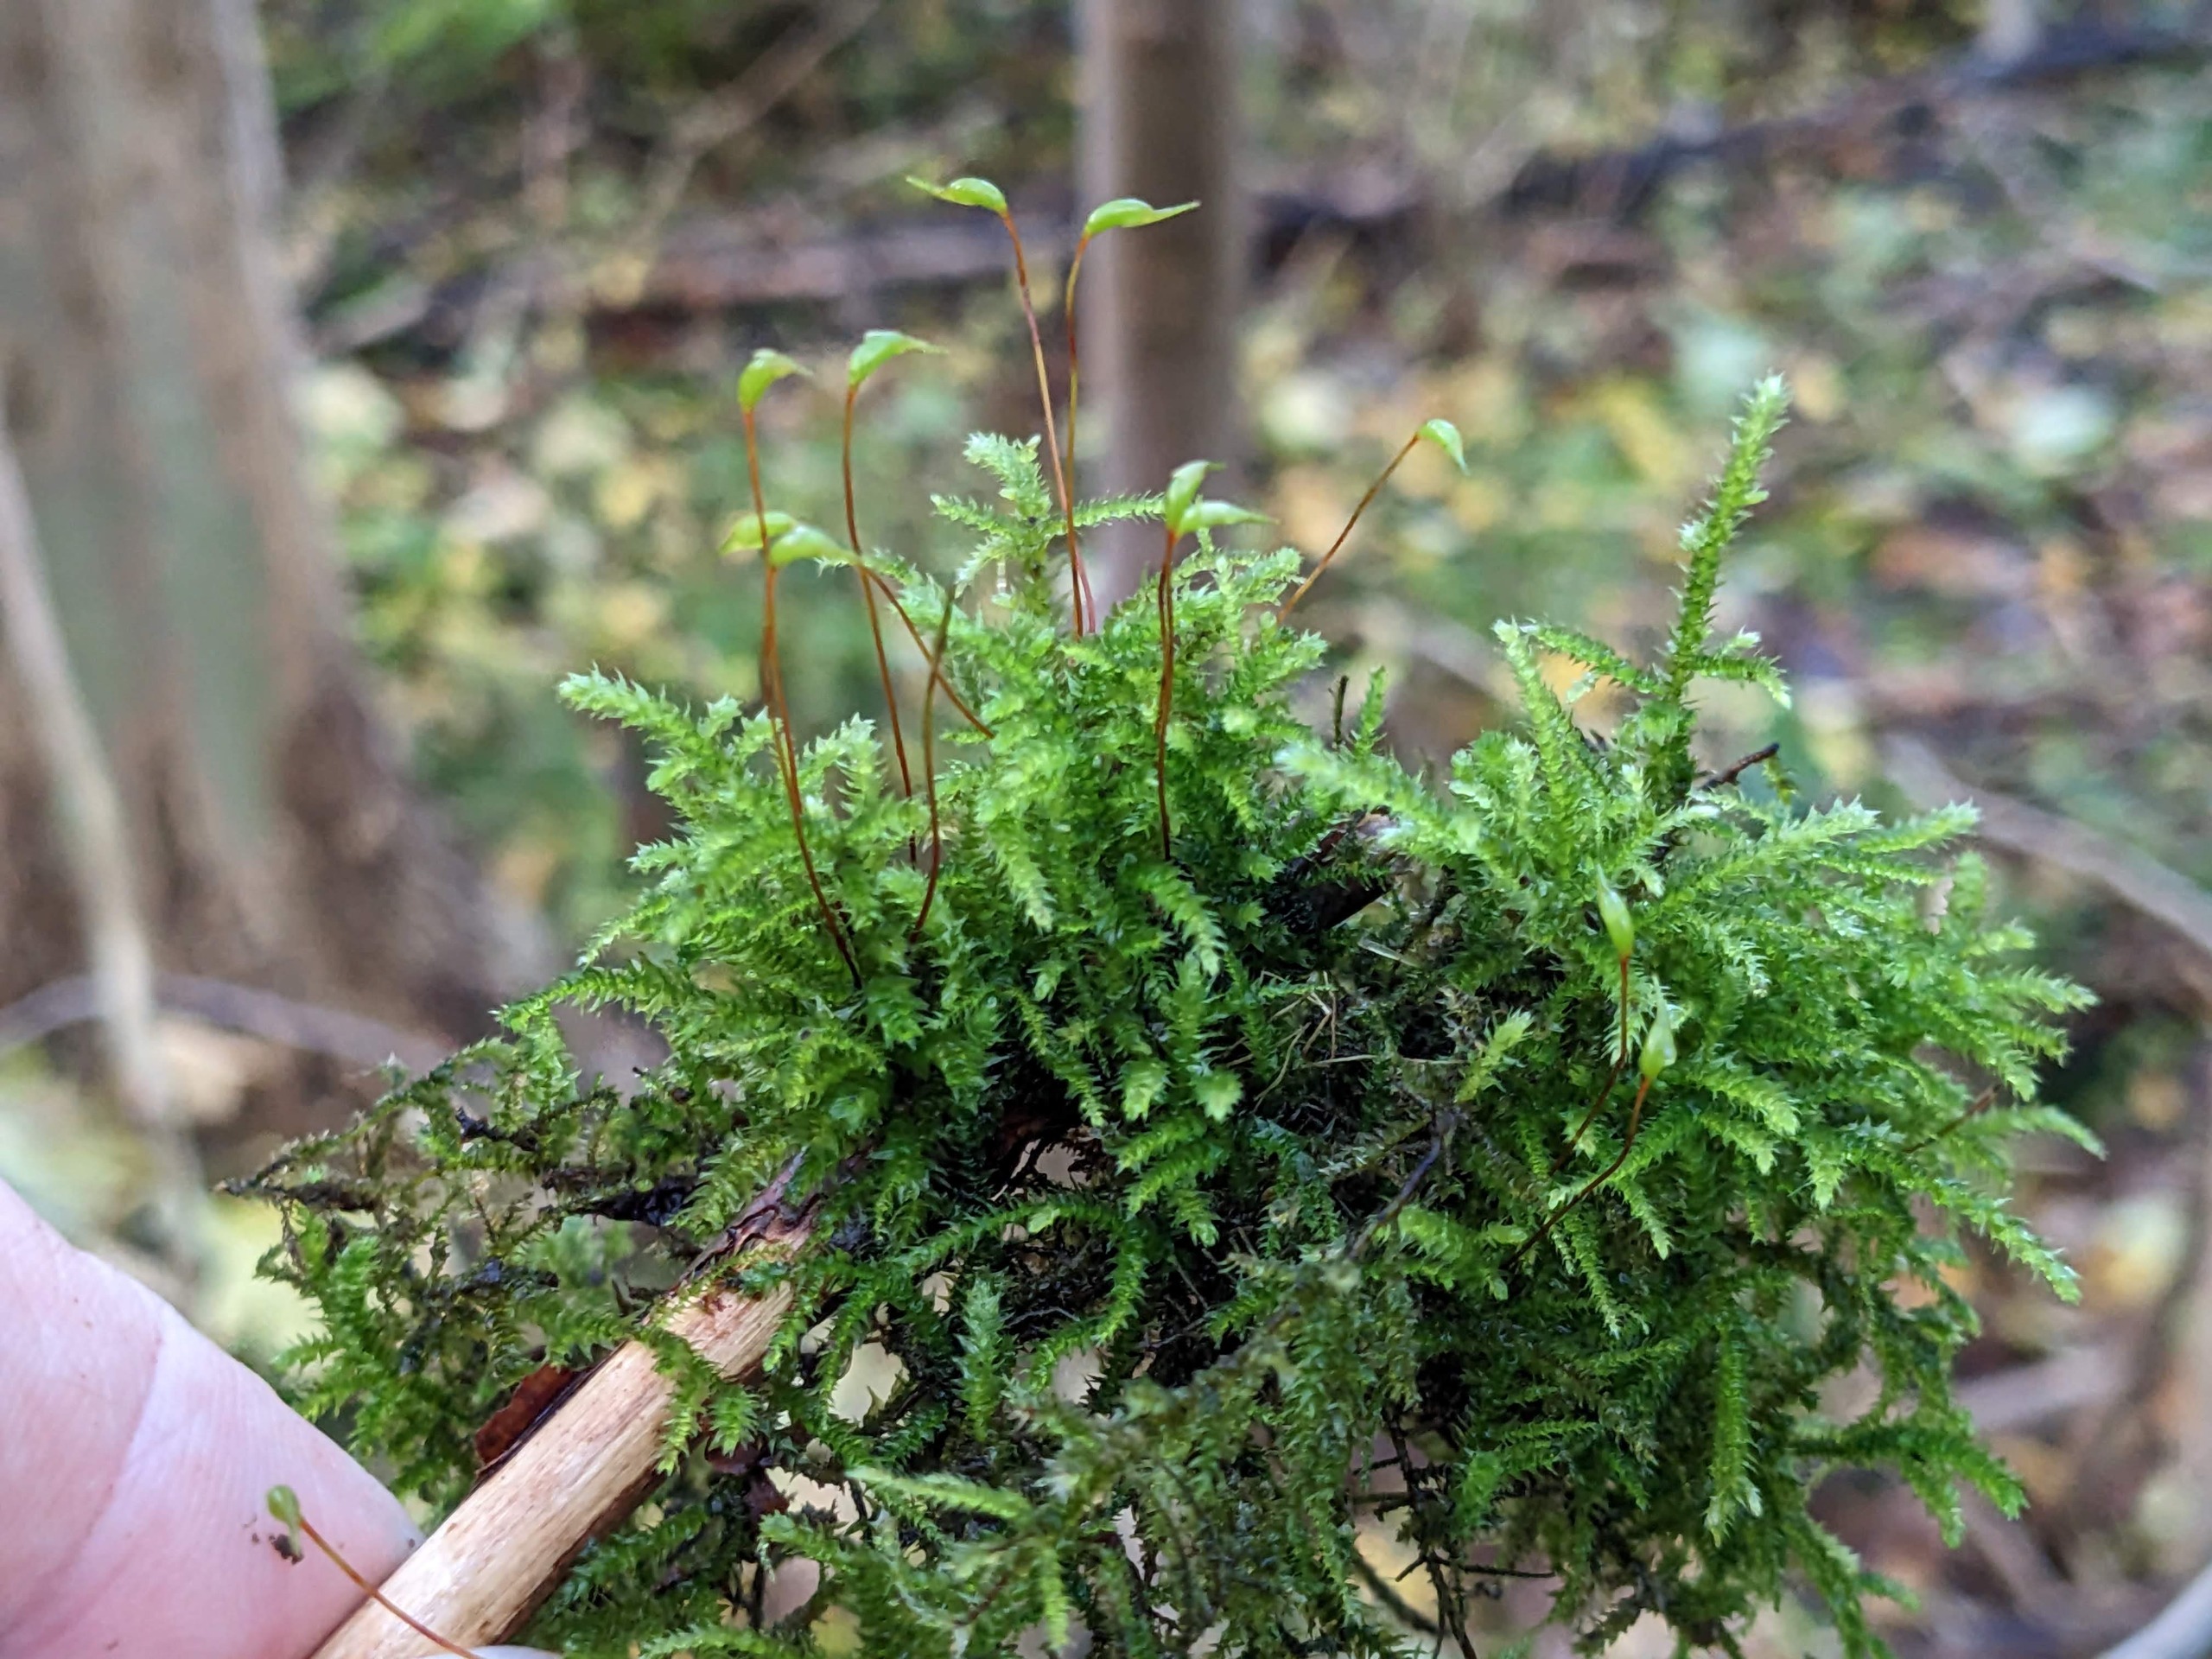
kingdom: Plantae
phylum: Bryophyta
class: Bryopsida
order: Hypnales
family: Brachytheciaceae
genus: Eurhynchium
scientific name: Eurhynchium striatum
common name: Stribet næbmos
